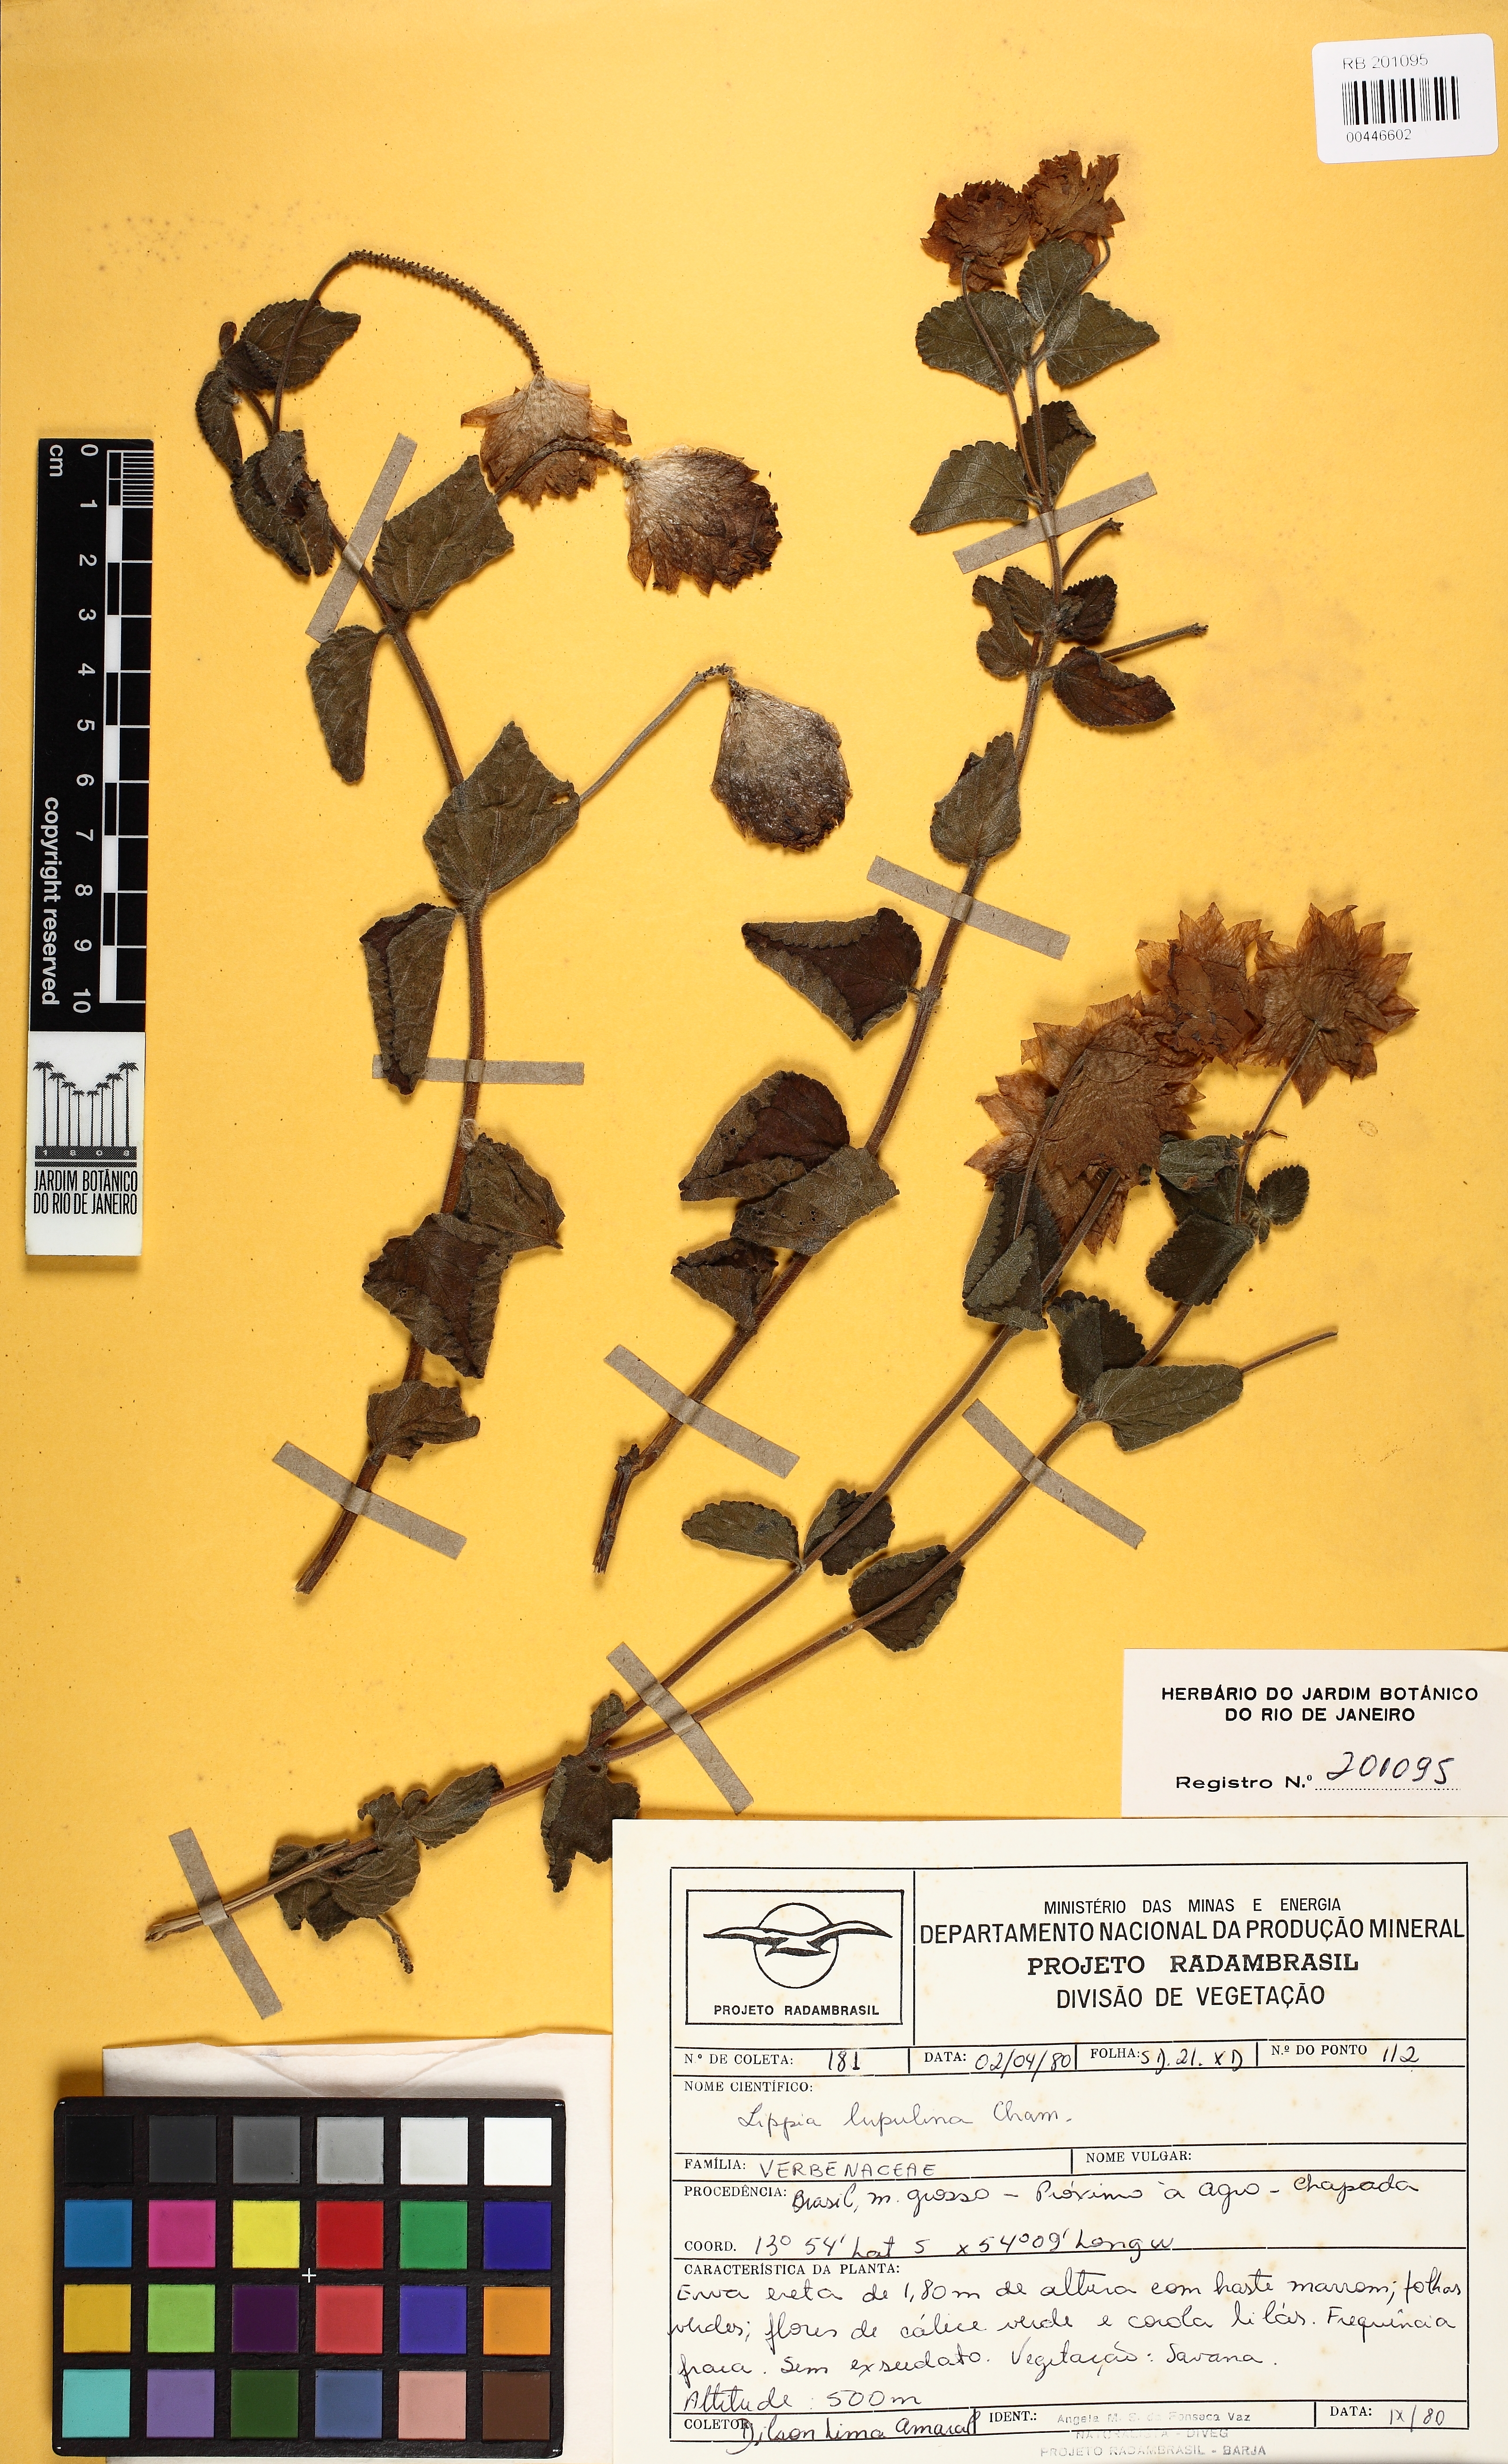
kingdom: Plantae
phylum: Tracheophyta
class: Magnoliopsida
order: Lamiales
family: Verbenaceae
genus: Lippia
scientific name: Lippia lupulina
